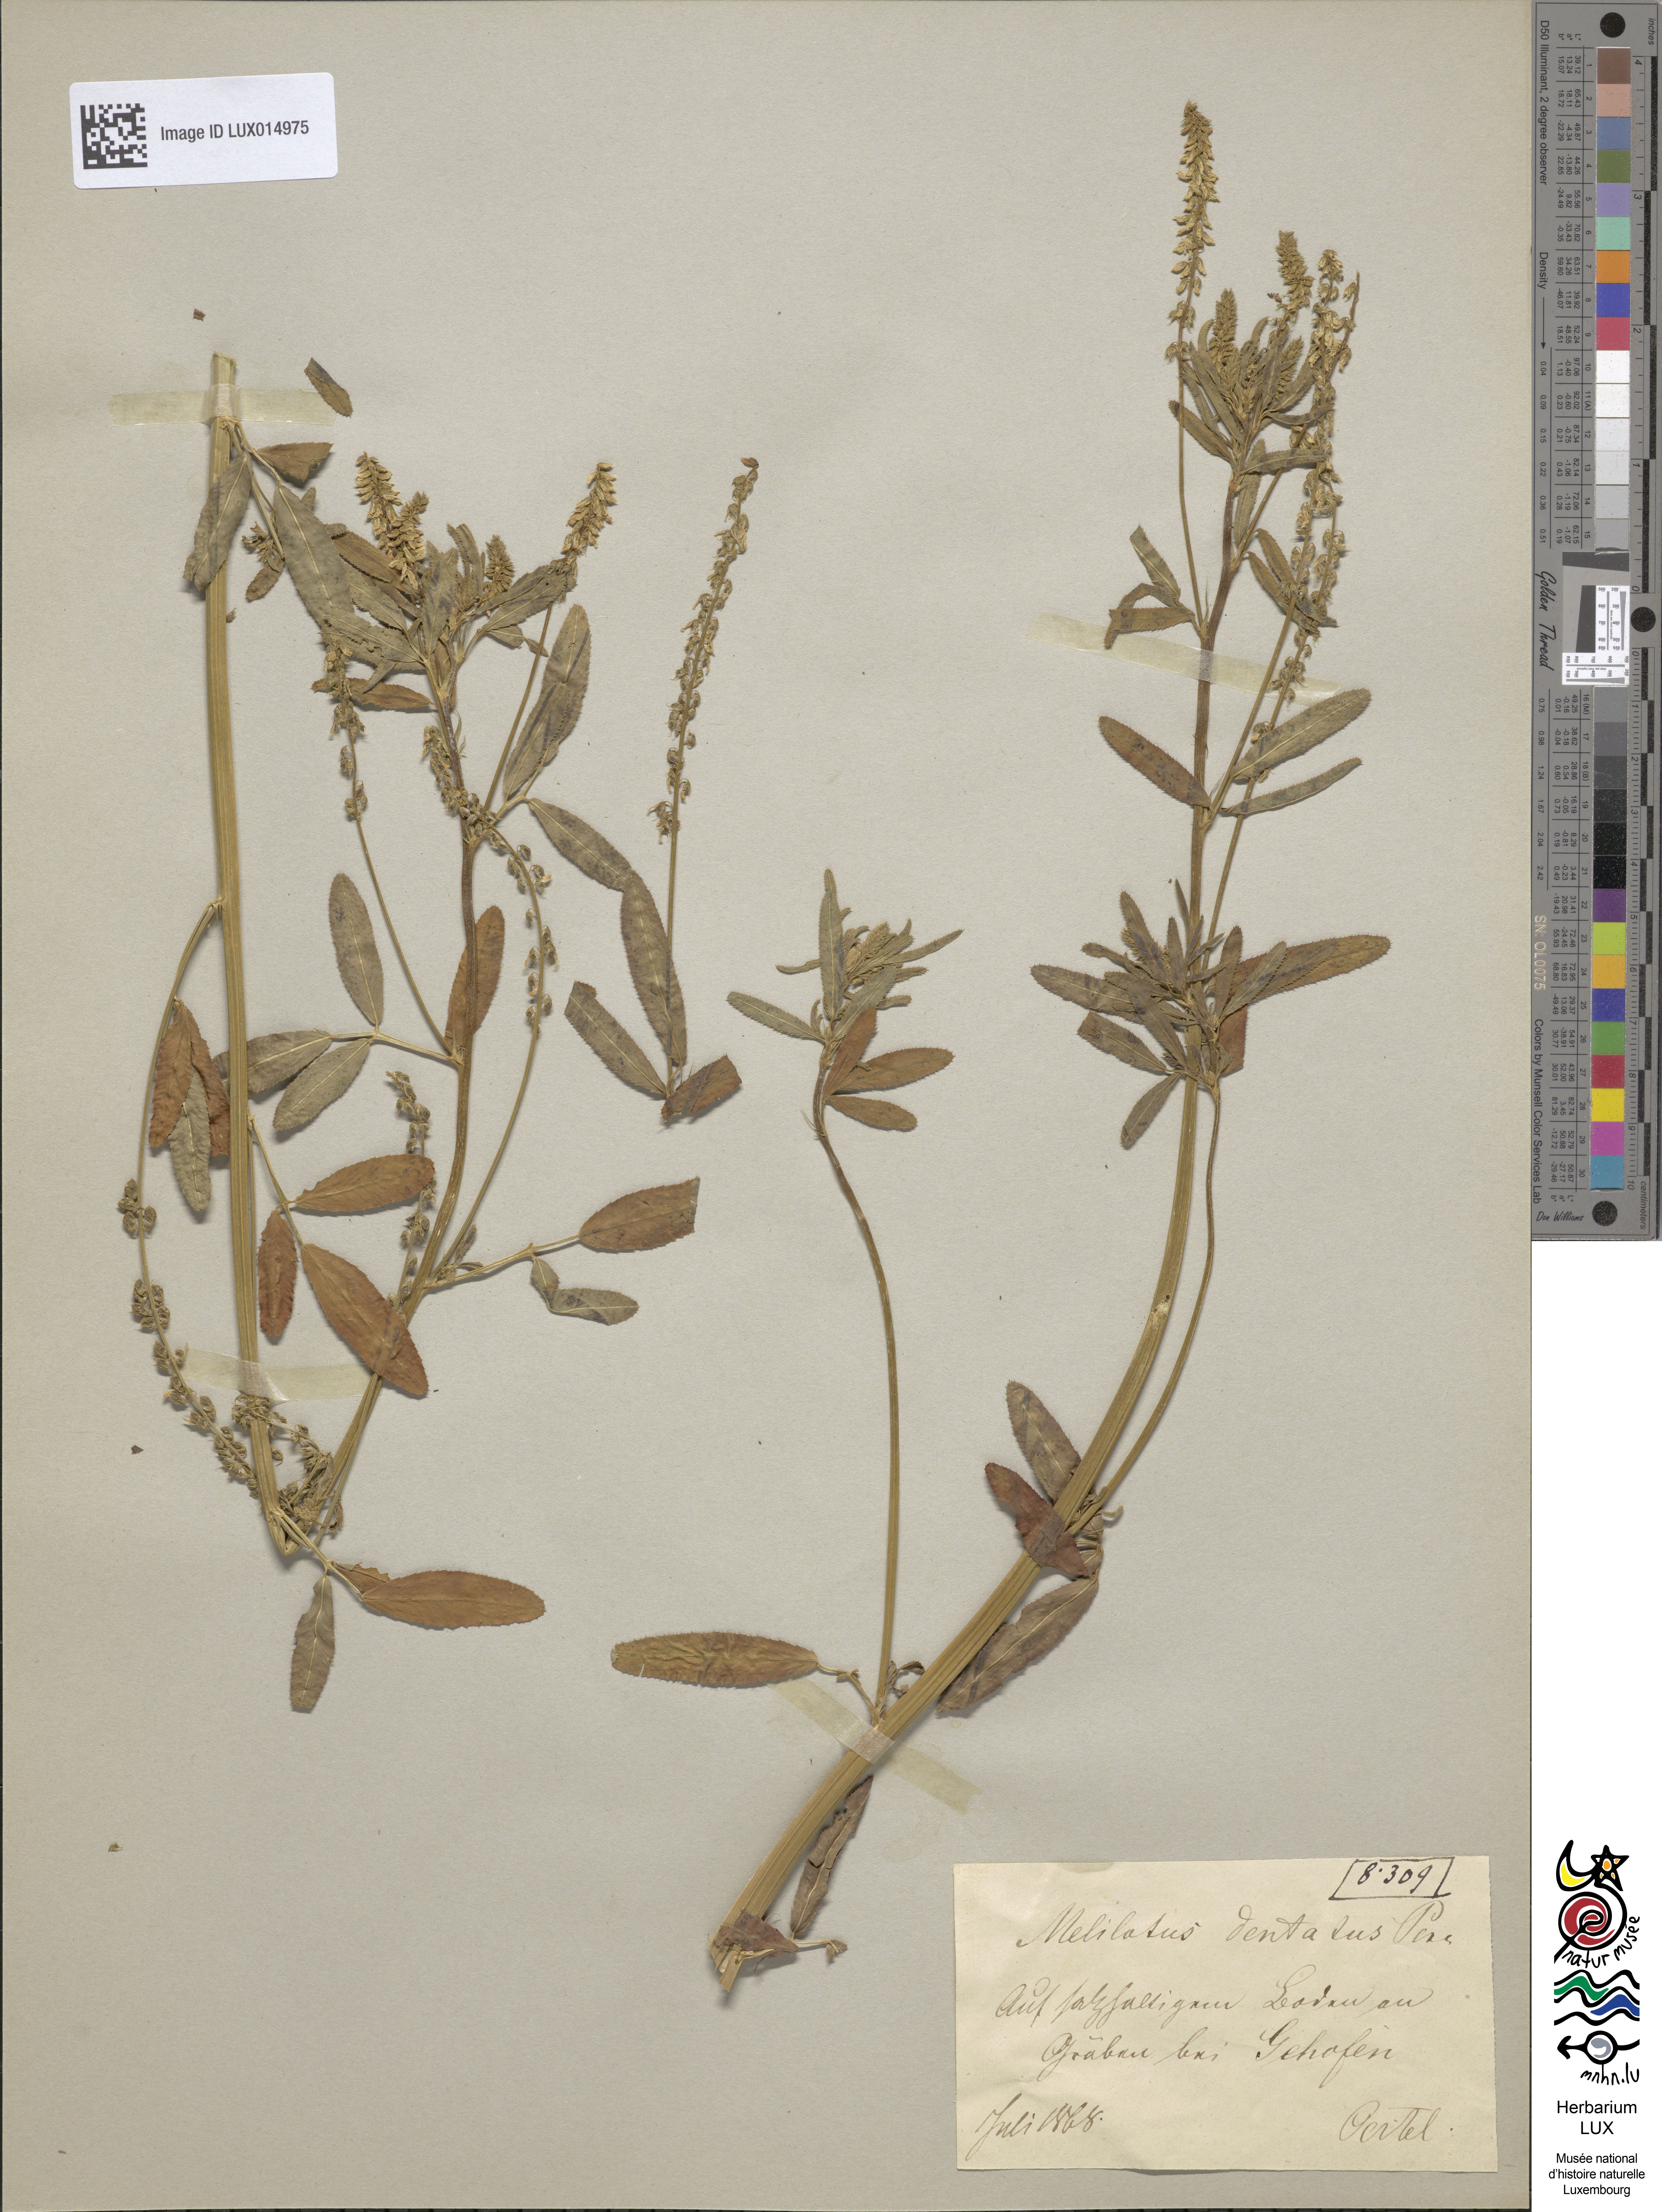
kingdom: Plantae
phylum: Tracheophyta
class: Magnoliopsida
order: Fabales
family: Fabaceae
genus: Melilotus
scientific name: Melilotus dentatus
